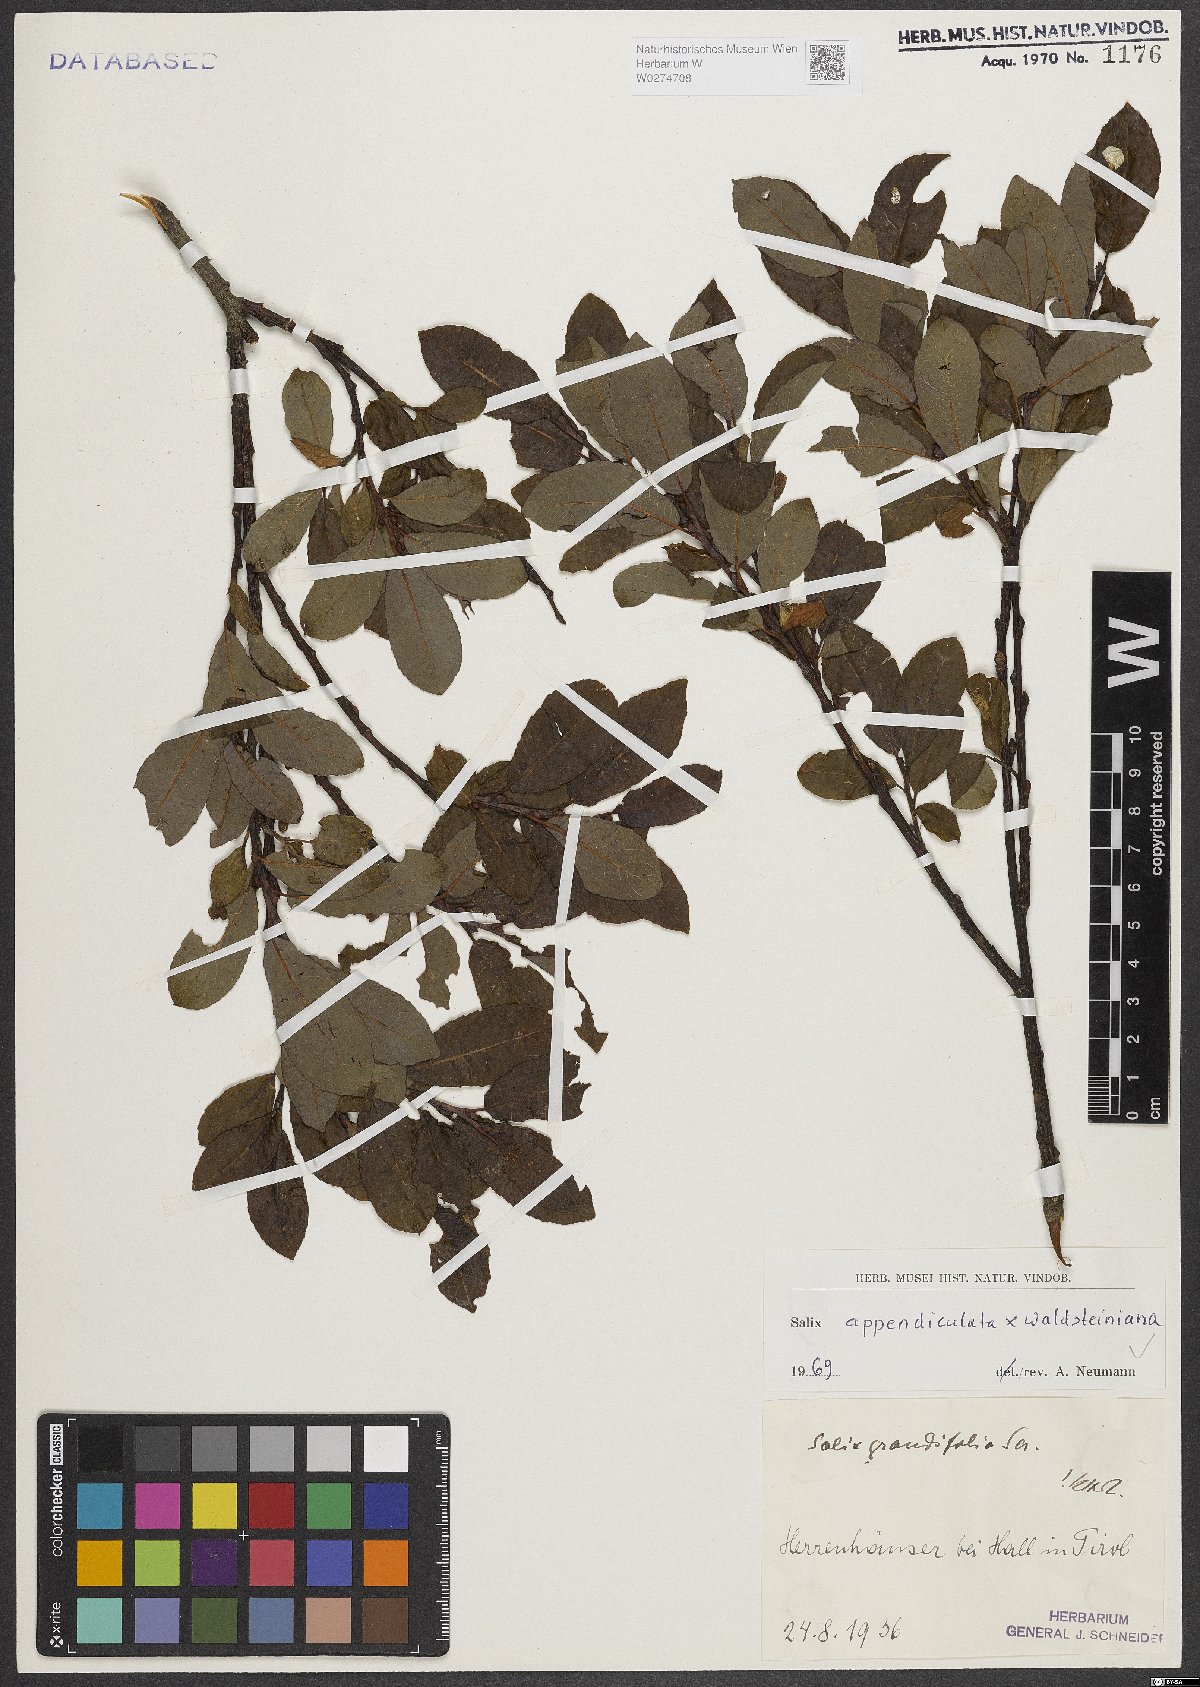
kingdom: Plantae
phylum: Tracheophyta
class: Magnoliopsida
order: Malpighiales
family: Salicaceae
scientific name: Salicaceae
